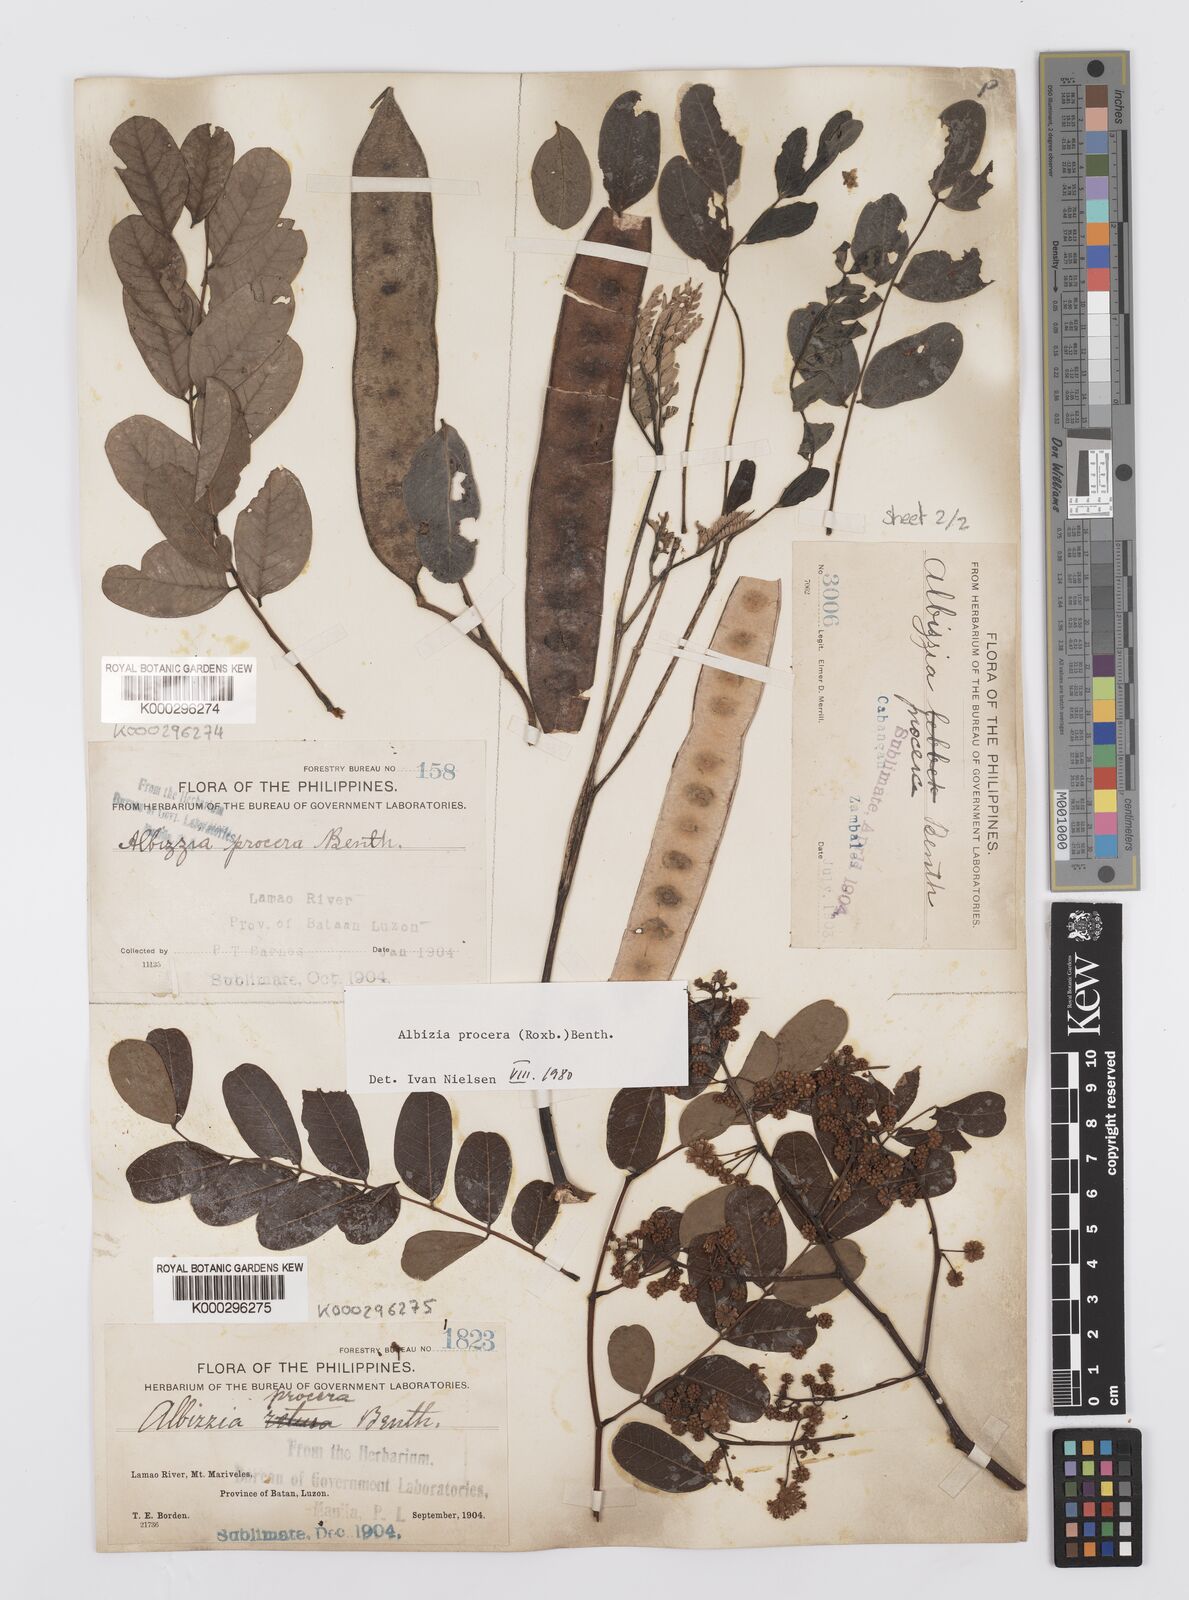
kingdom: Plantae
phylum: Tracheophyta
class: Magnoliopsida
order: Fabales
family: Fabaceae
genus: Albizia
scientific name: Albizia procera
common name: Tall albizia
